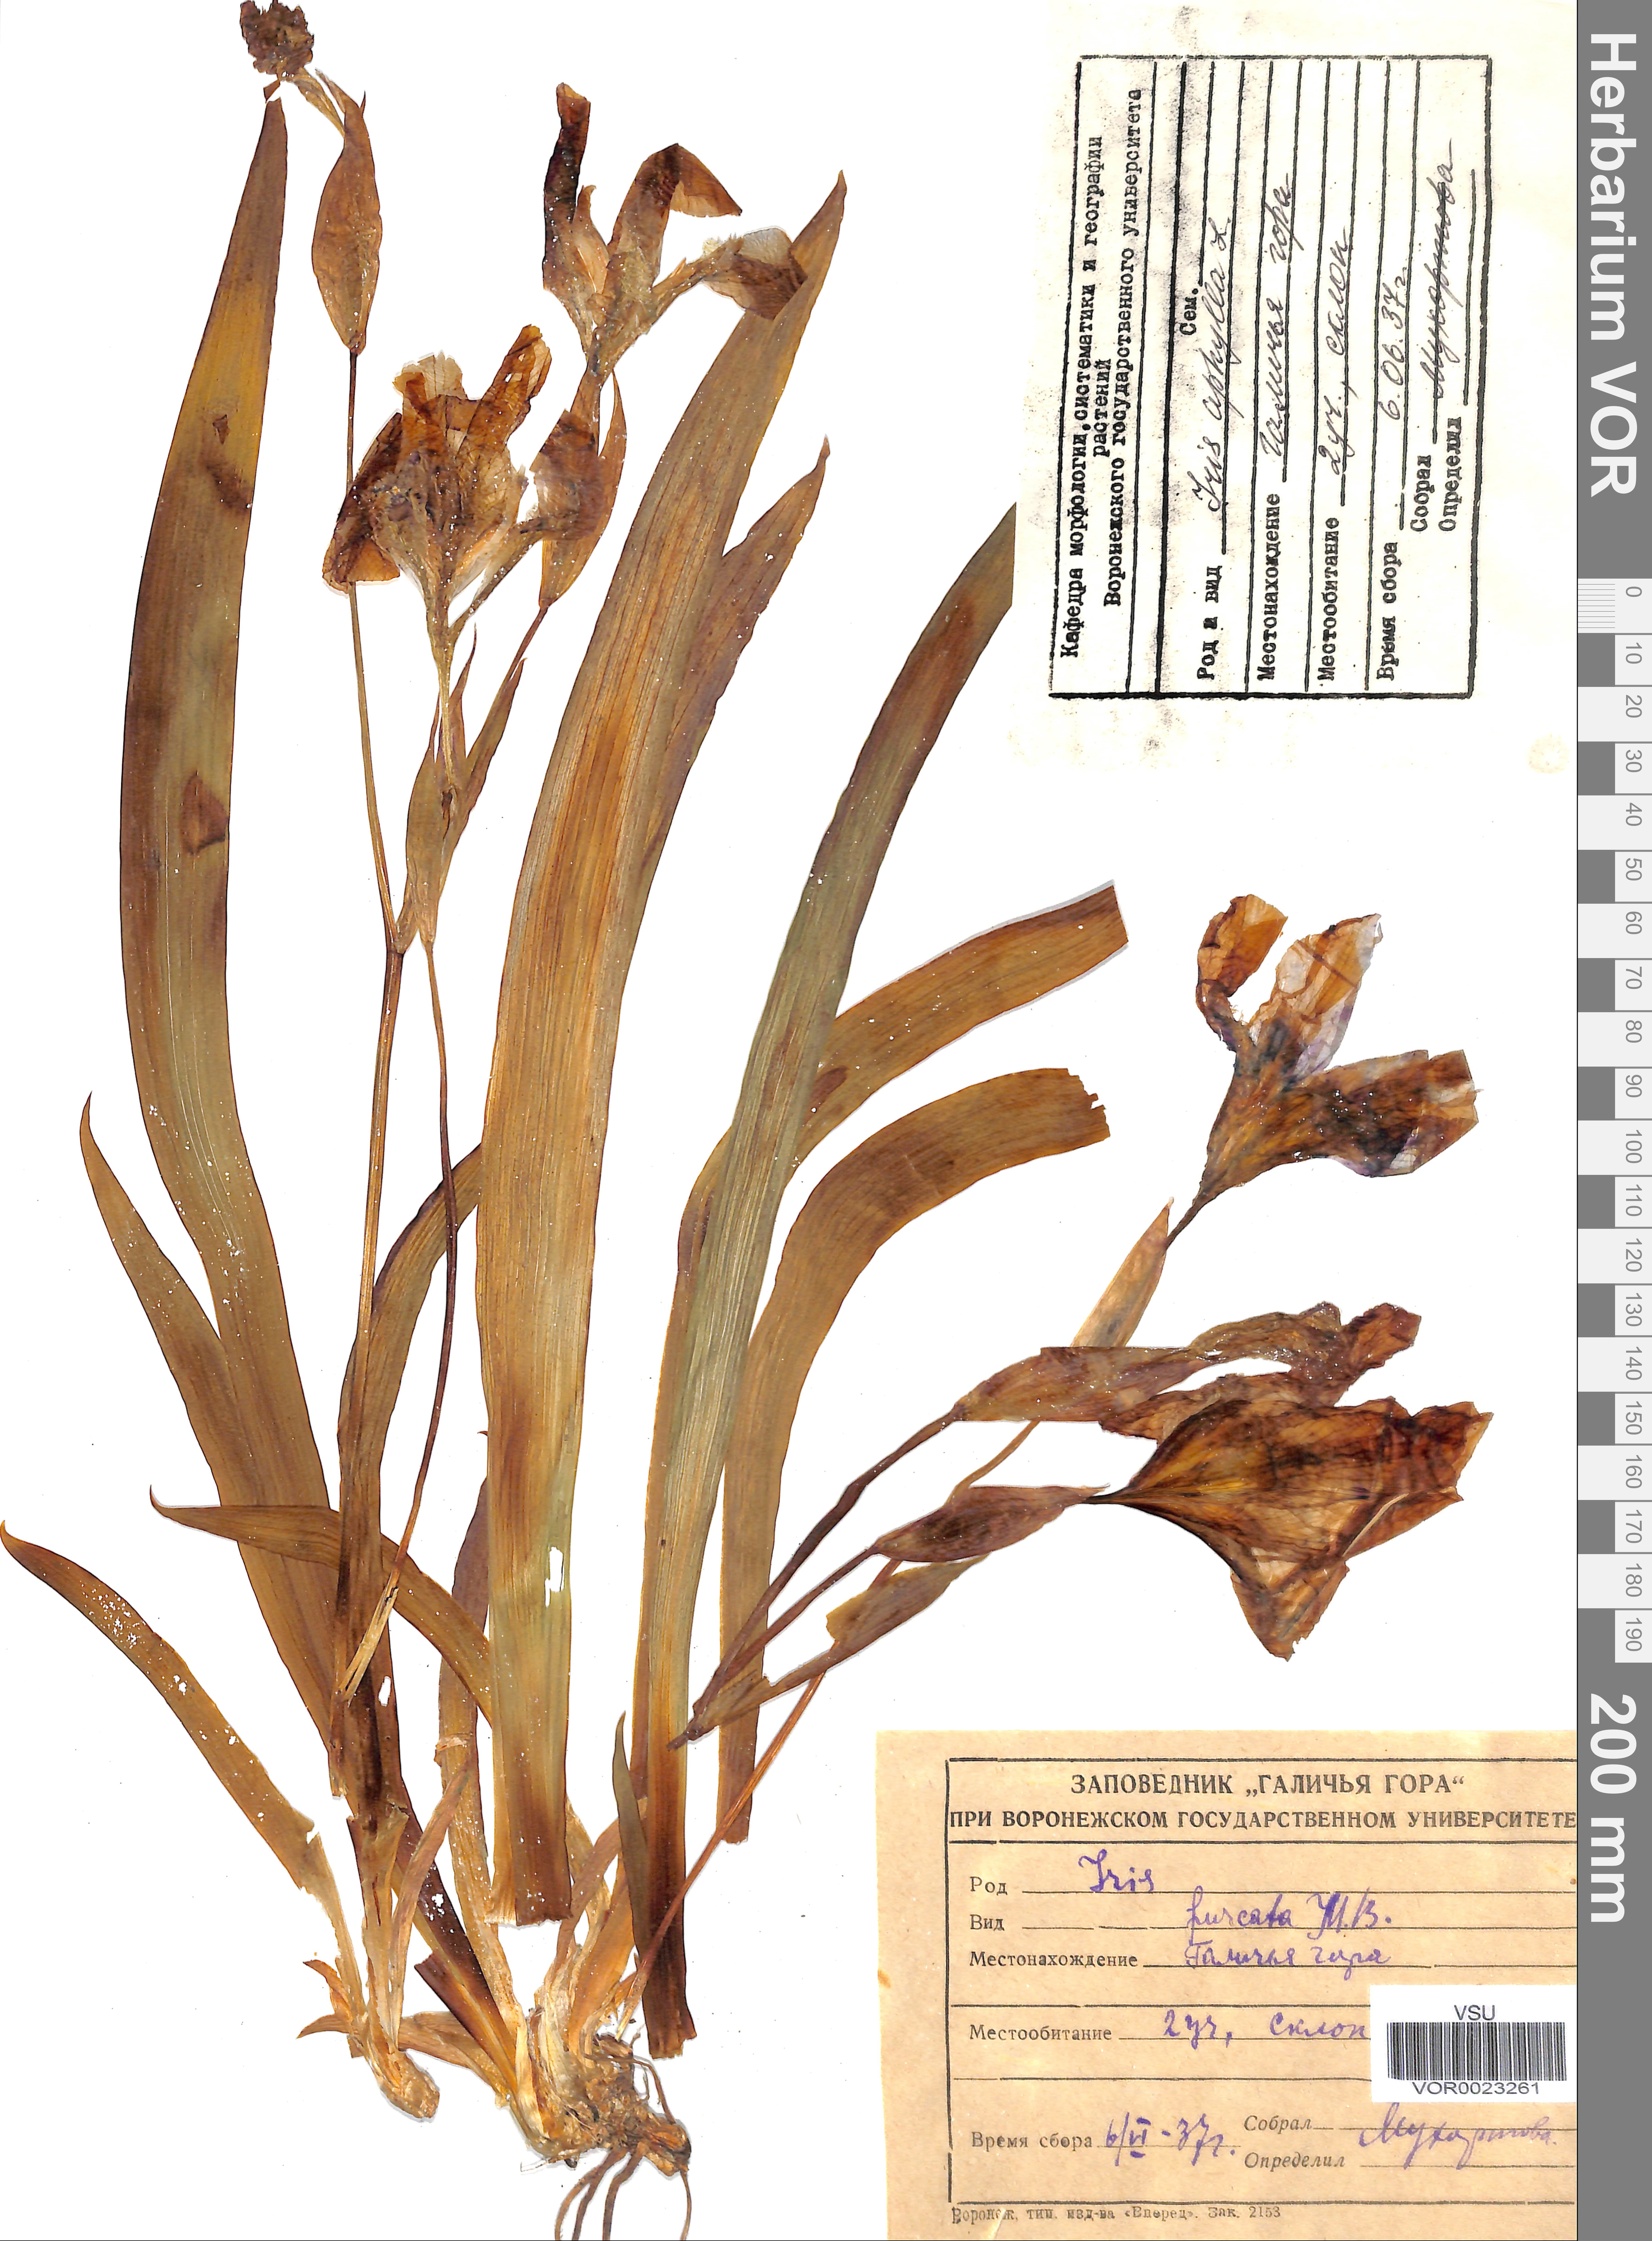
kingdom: Plantae
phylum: Tracheophyta
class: Liliopsida
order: Asparagales
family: Iridaceae
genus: Iris
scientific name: Iris aphylla
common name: Stool iris
